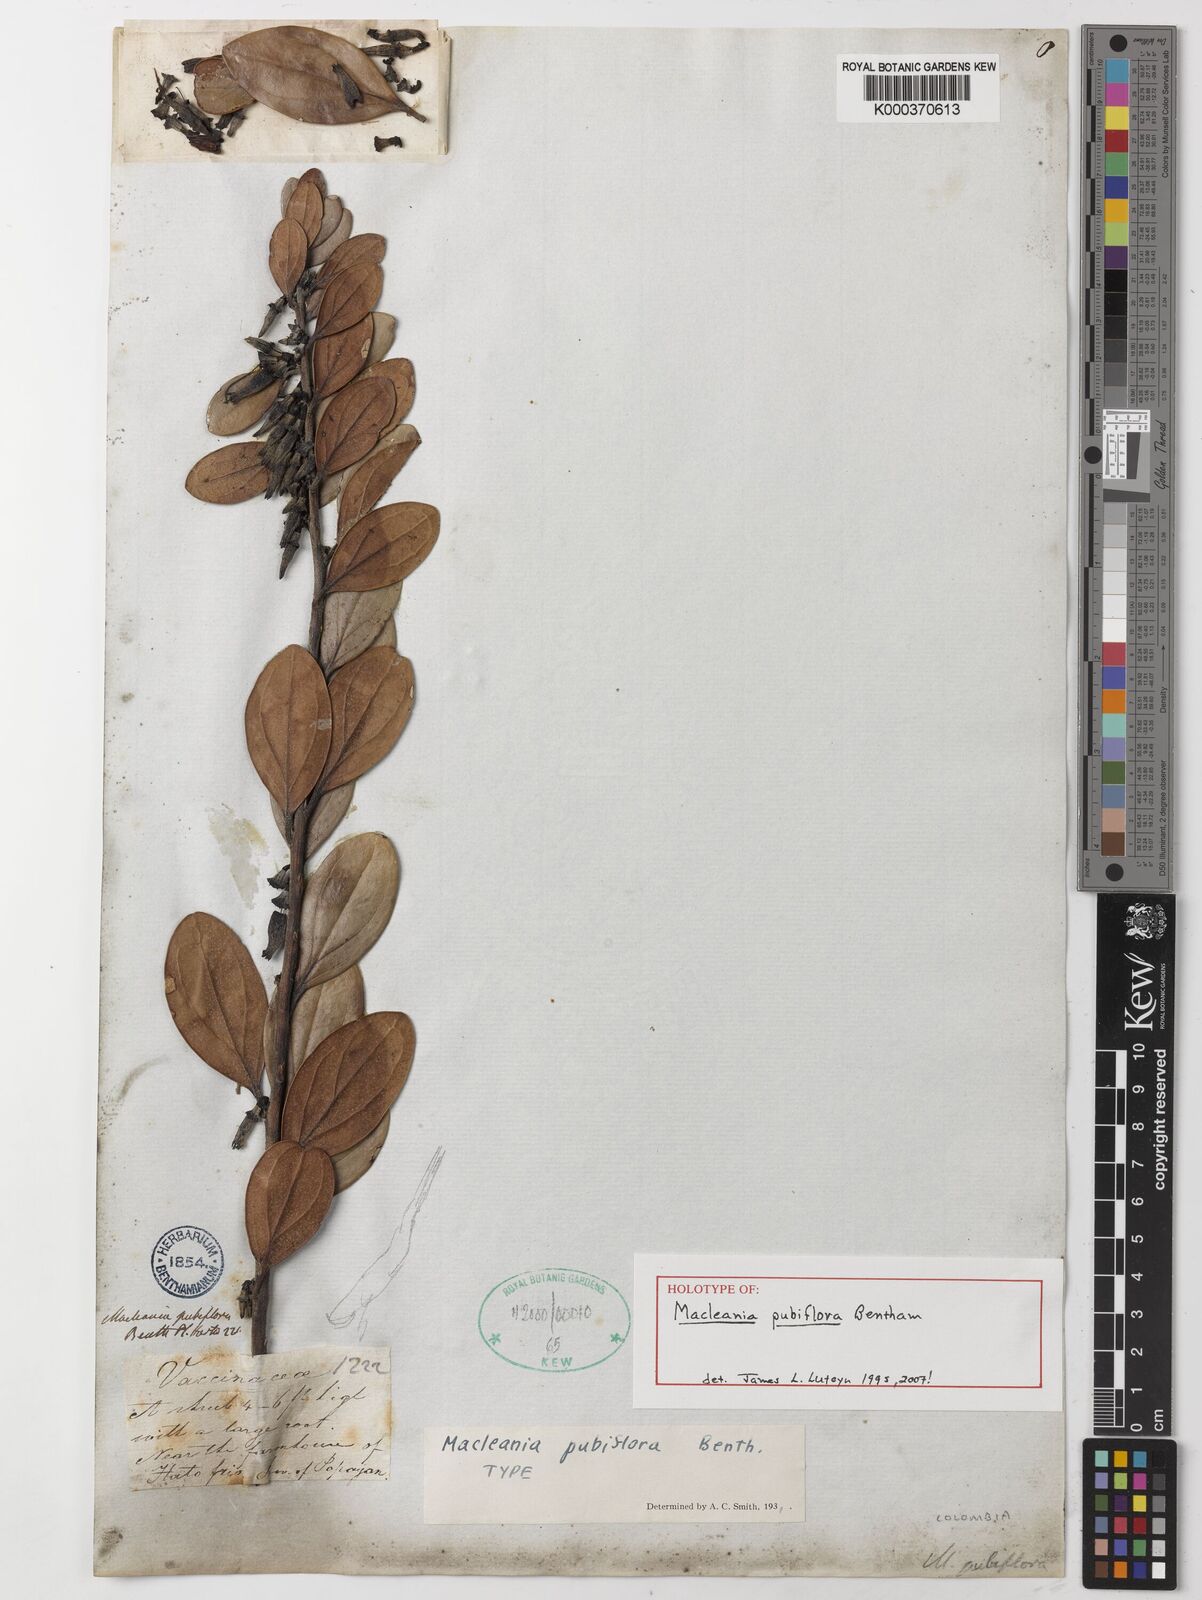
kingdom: Plantae
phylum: Tracheophyta
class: Magnoliopsida
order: Ericales
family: Ericaceae
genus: Macleania
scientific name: Macleania pubiflora
